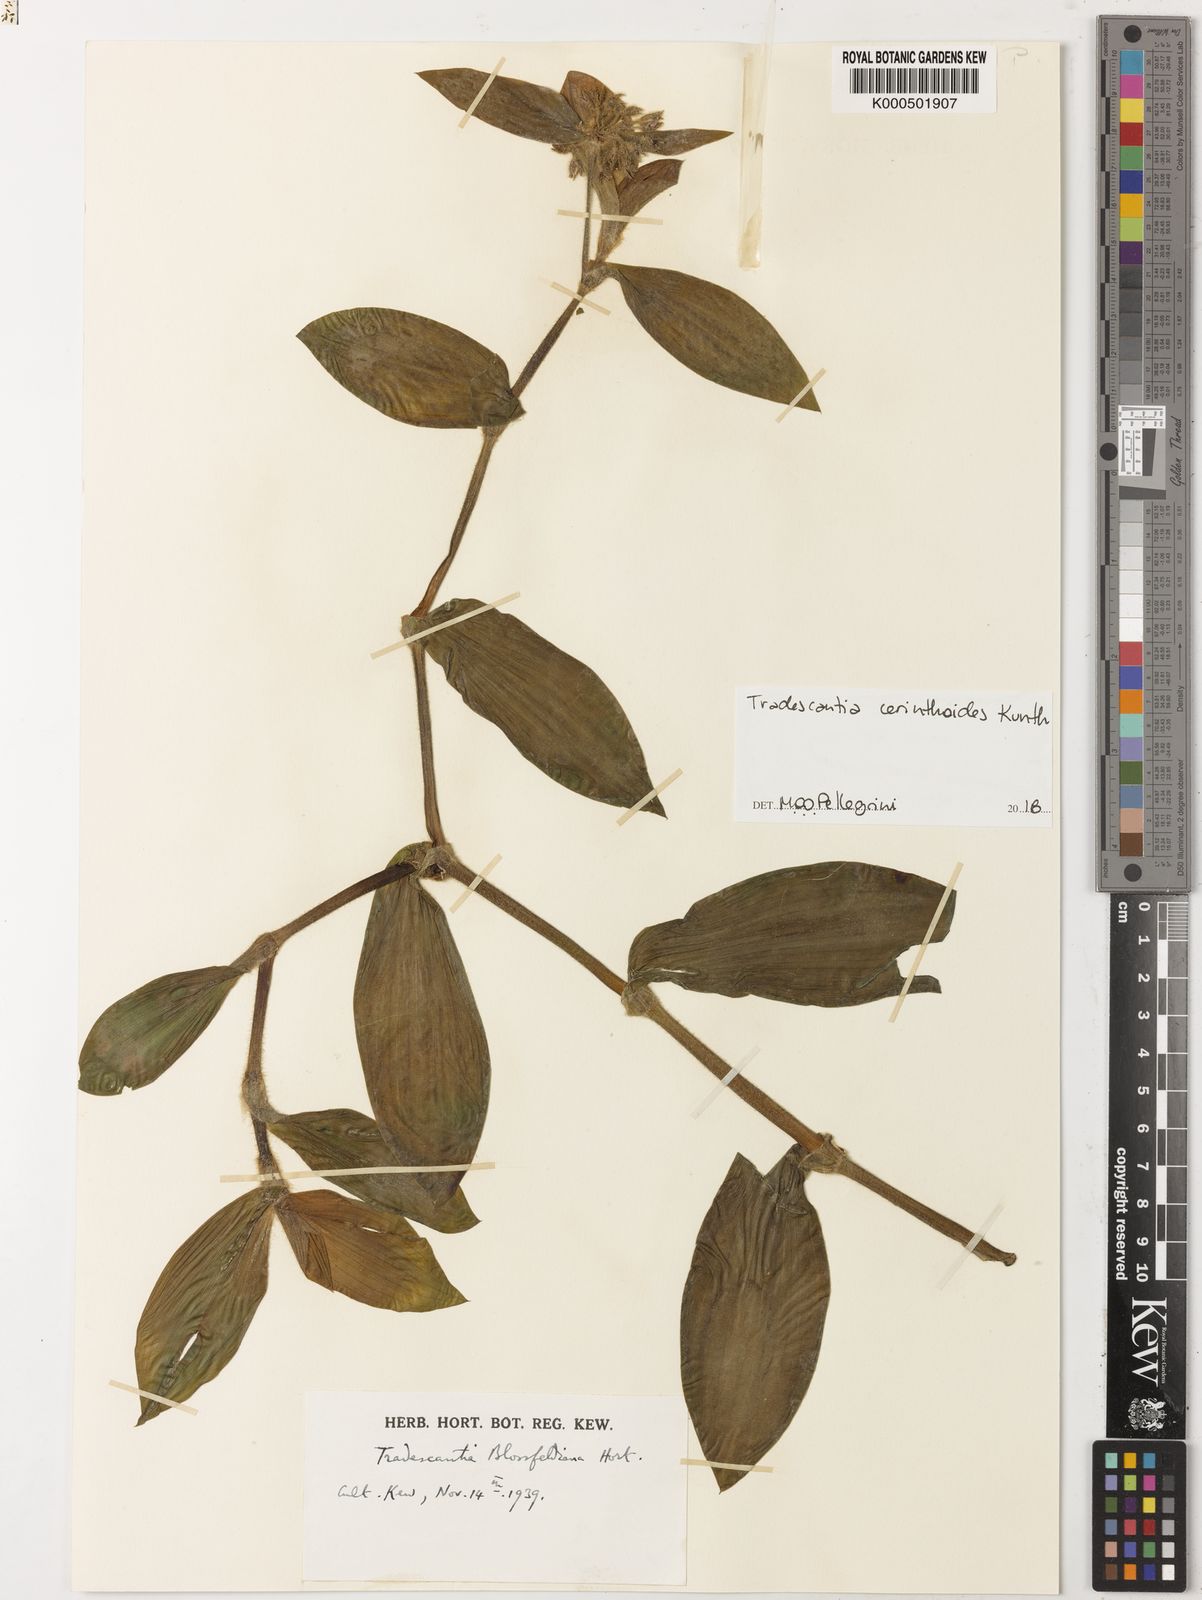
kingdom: Plantae
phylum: Tracheophyta
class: Liliopsida
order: Commelinales
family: Commelinaceae
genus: Tradescantia
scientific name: Tradescantia cerinthoides
